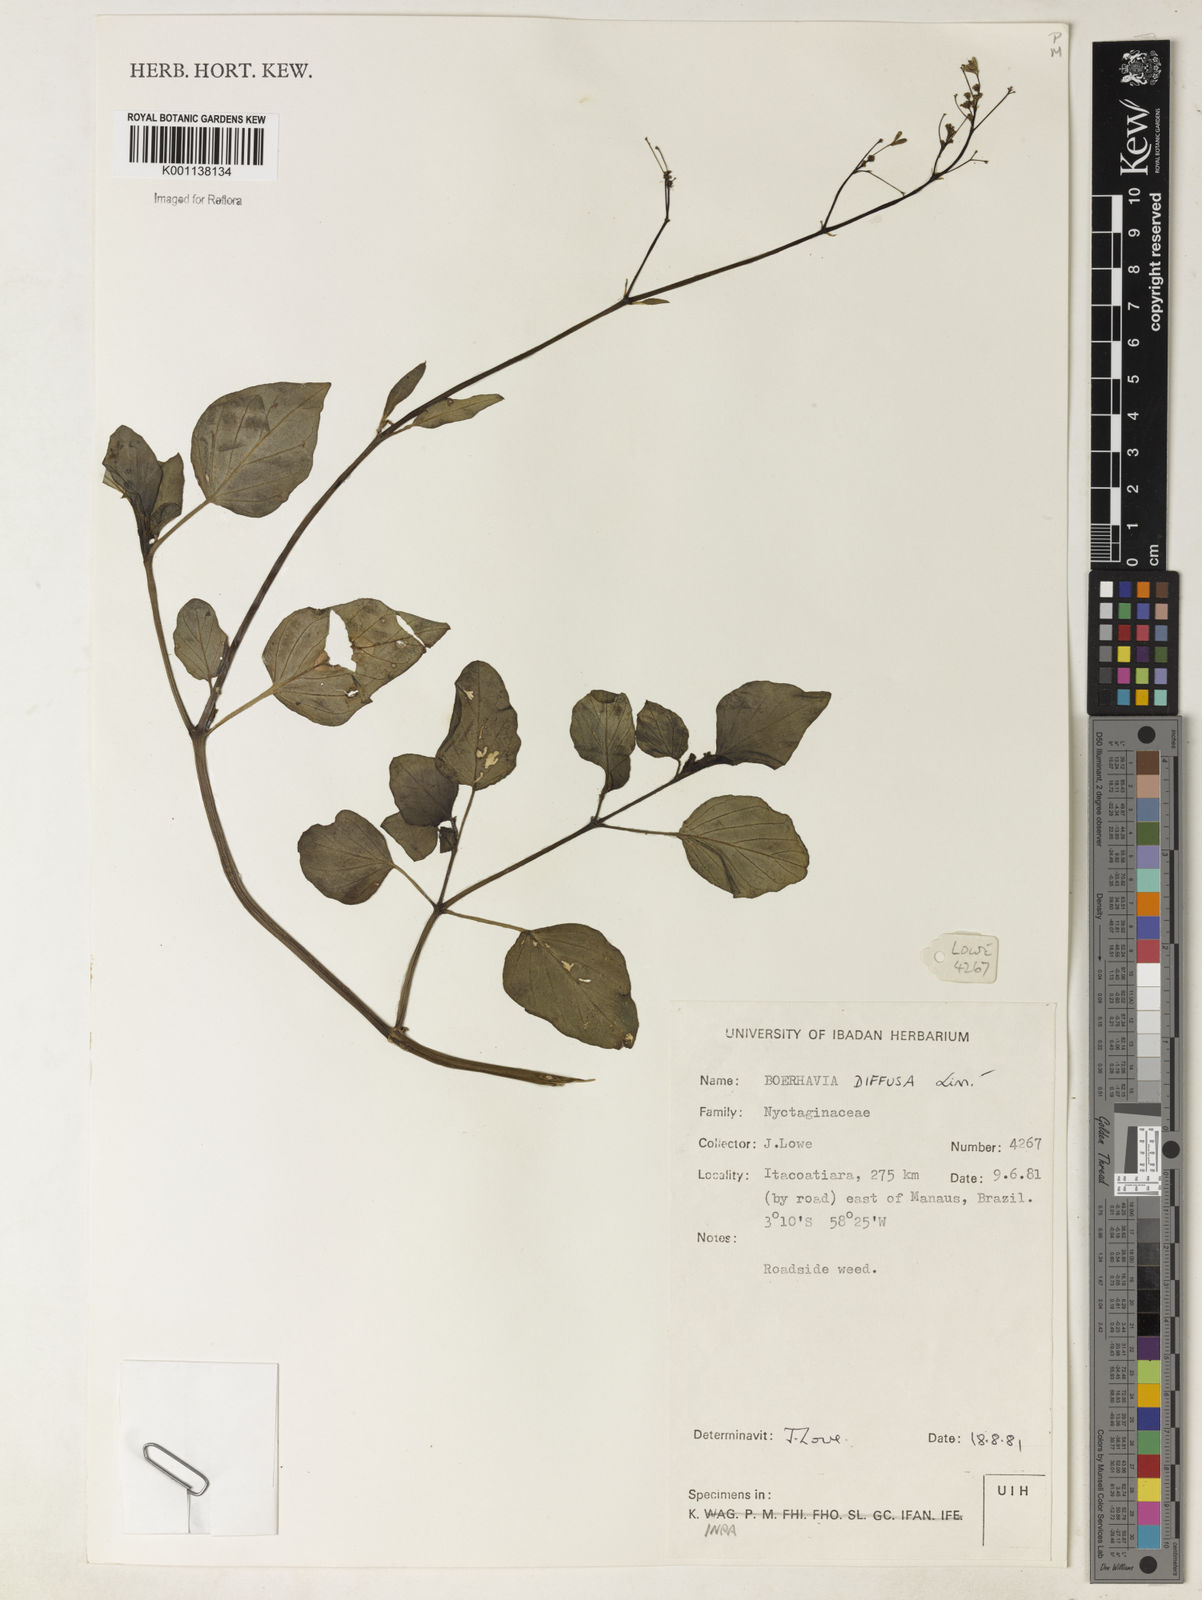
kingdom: Plantae
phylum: Tracheophyta
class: Magnoliopsida
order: Caryophyllales
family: Nyctaginaceae
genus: Boerhavia
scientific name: Boerhavia diffusa
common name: Red spiderling
